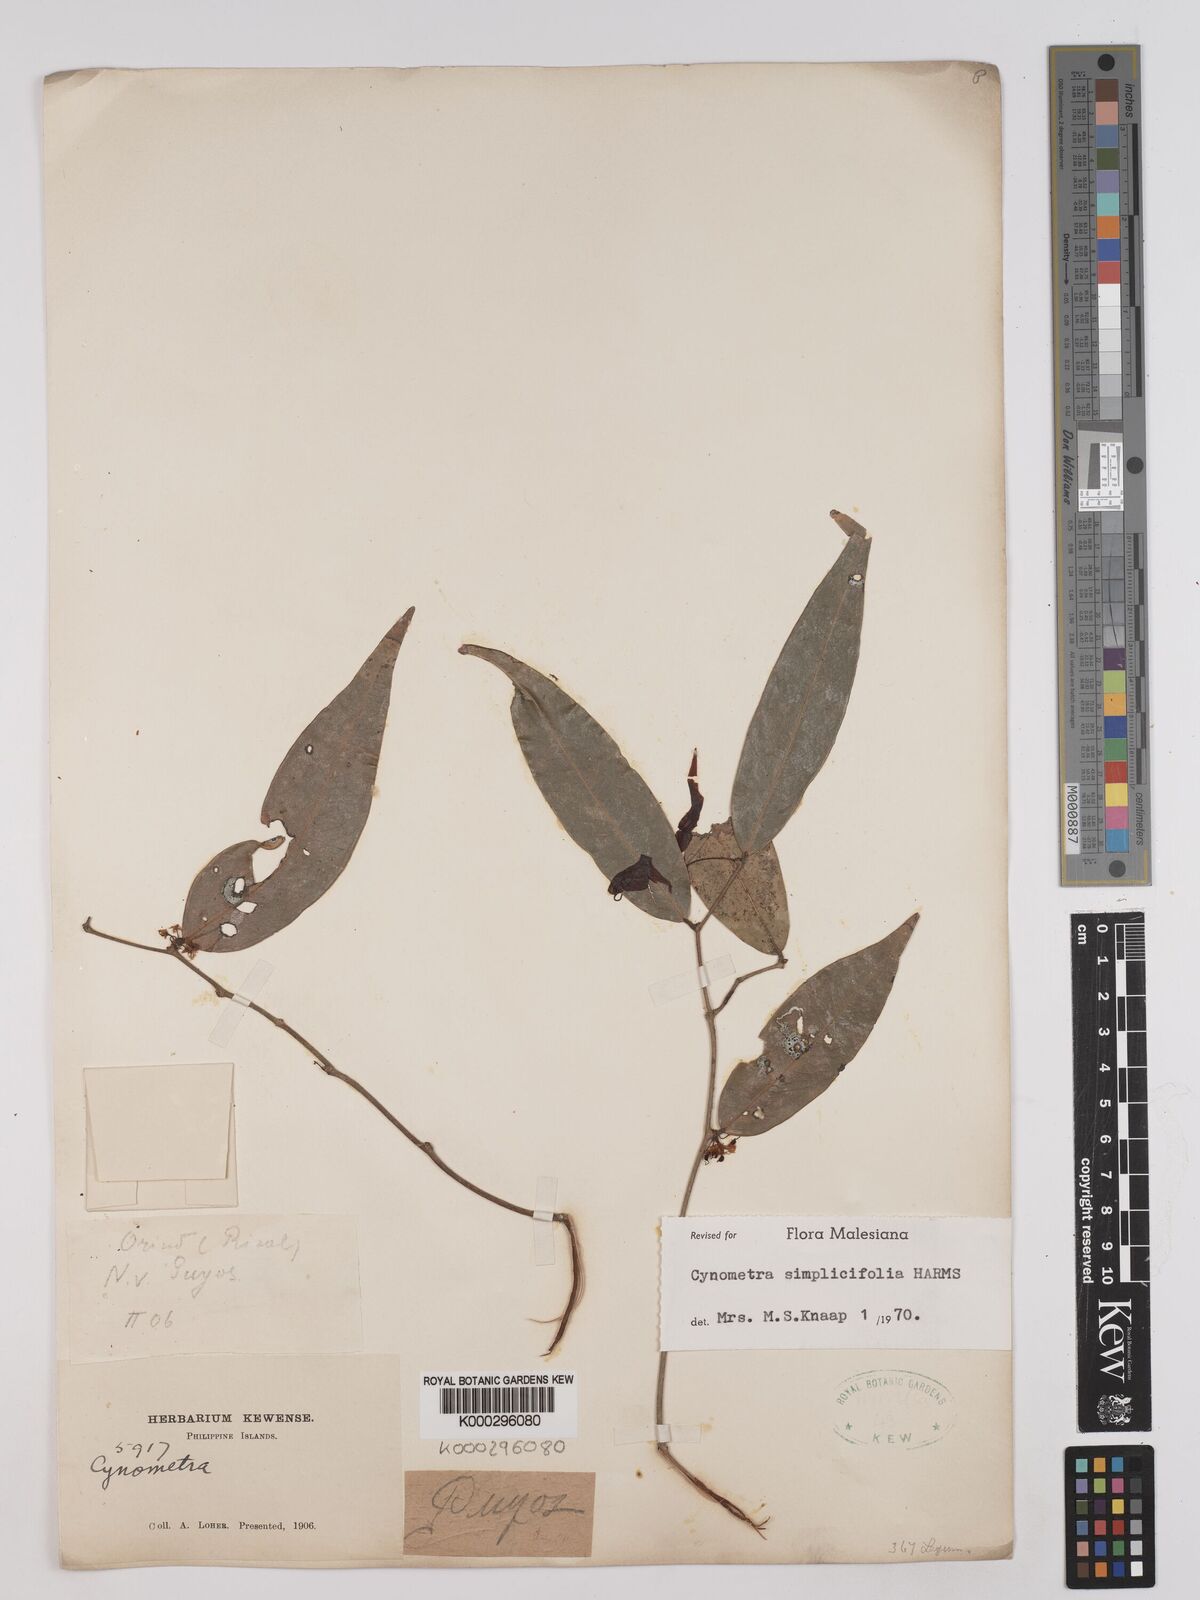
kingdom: Plantae
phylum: Tracheophyta
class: Magnoliopsida
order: Fabales
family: Fabaceae
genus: Cynometra
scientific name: Cynometra simplicifolia
